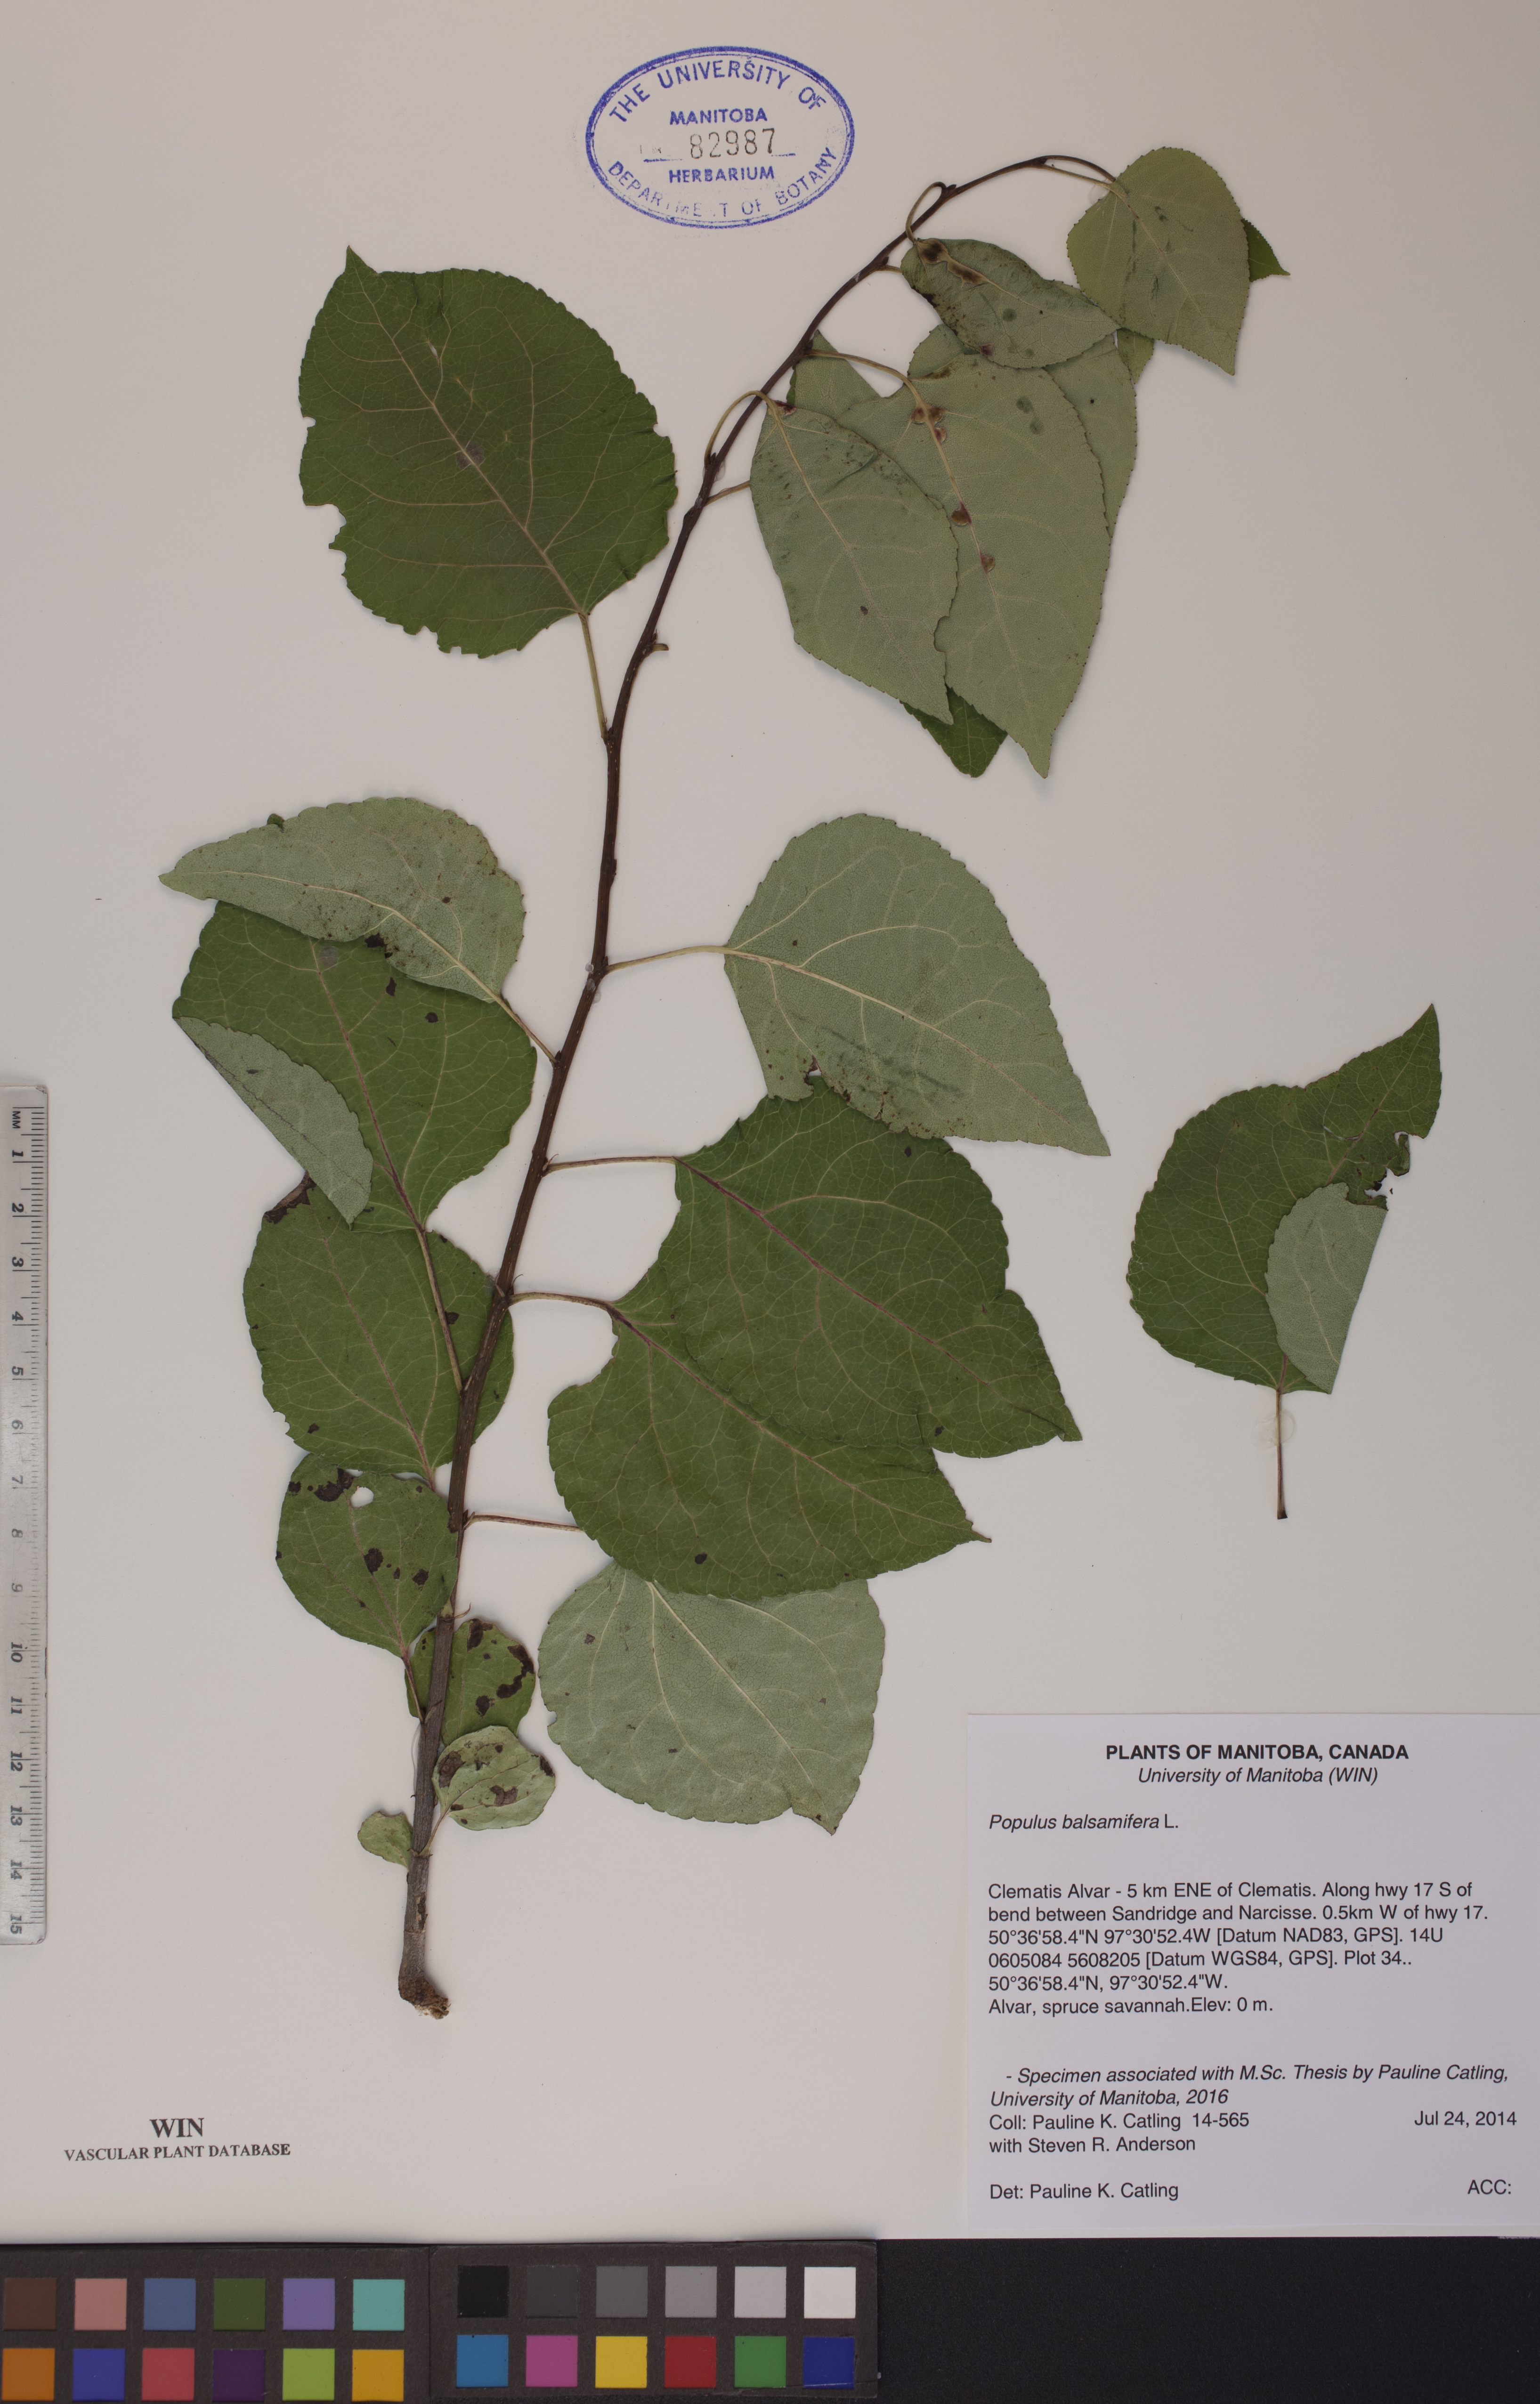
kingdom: Plantae
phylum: Tracheophyta
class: Magnoliopsida
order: Malpighiales
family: Salicaceae
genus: Populus
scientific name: Populus balsamifera
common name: Balsam poplar
